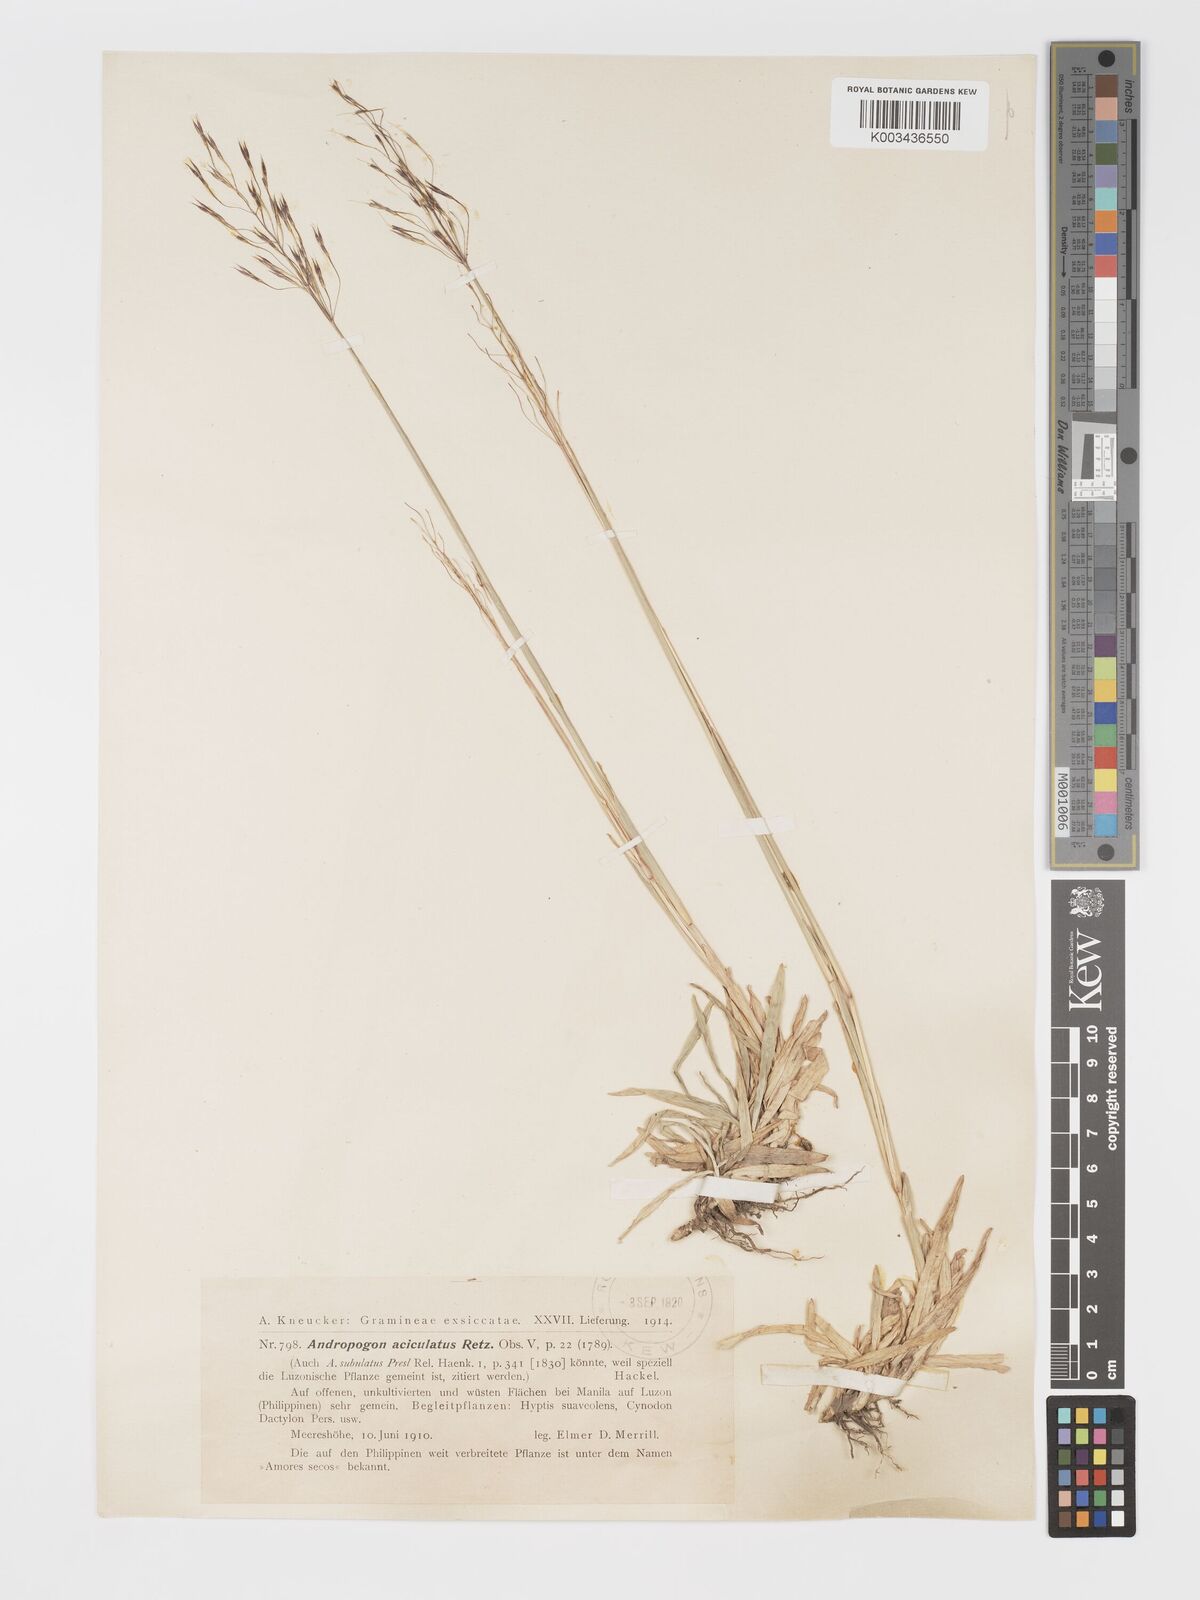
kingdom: Plantae
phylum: Tracheophyta
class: Liliopsida
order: Poales
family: Poaceae
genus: Chrysopogon
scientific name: Chrysopogon aciculatus
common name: Pilipiliula
